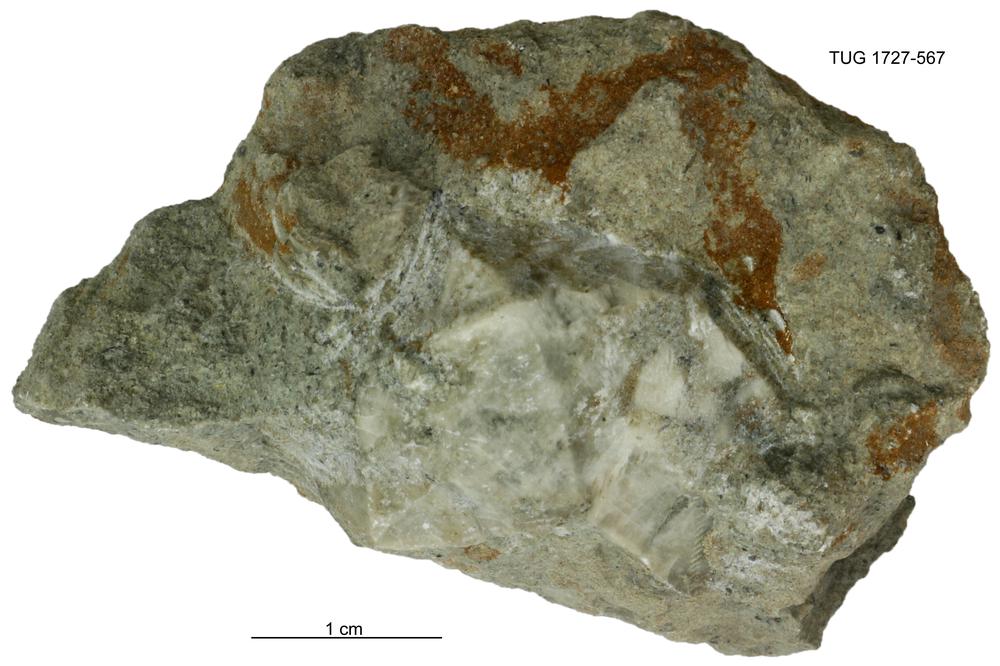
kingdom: Animalia
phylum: Echinodermata
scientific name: Echinodermata
